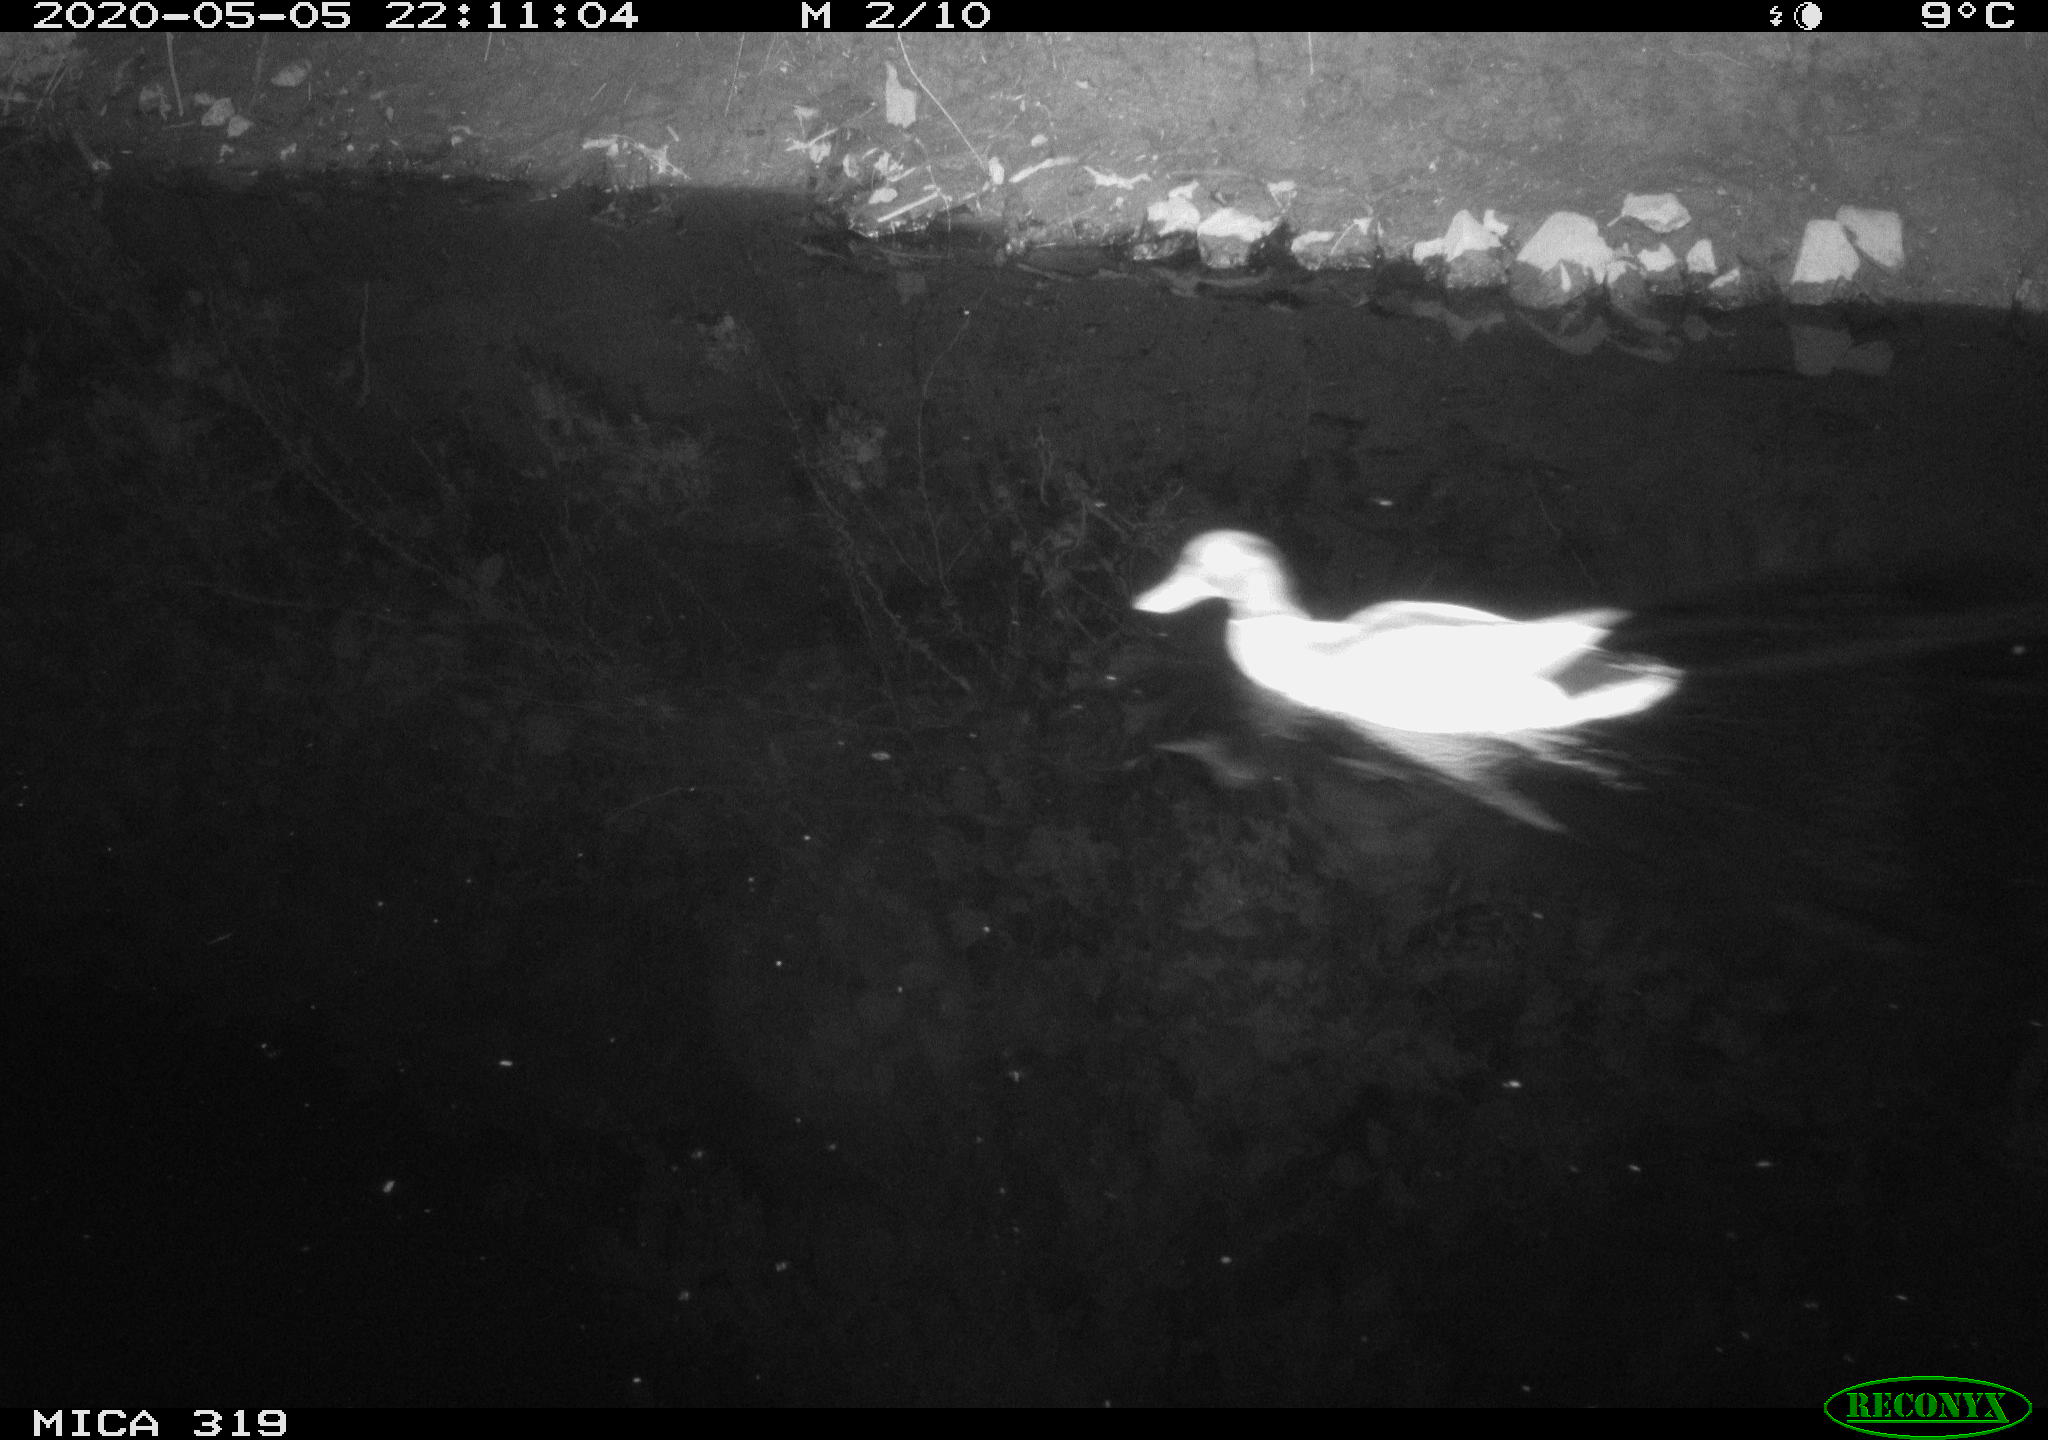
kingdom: Animalia
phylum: Chordata
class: Aves
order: Anseriformes
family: Anatidae
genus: Anas
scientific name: Anas platyrhynchos
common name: Mallard
